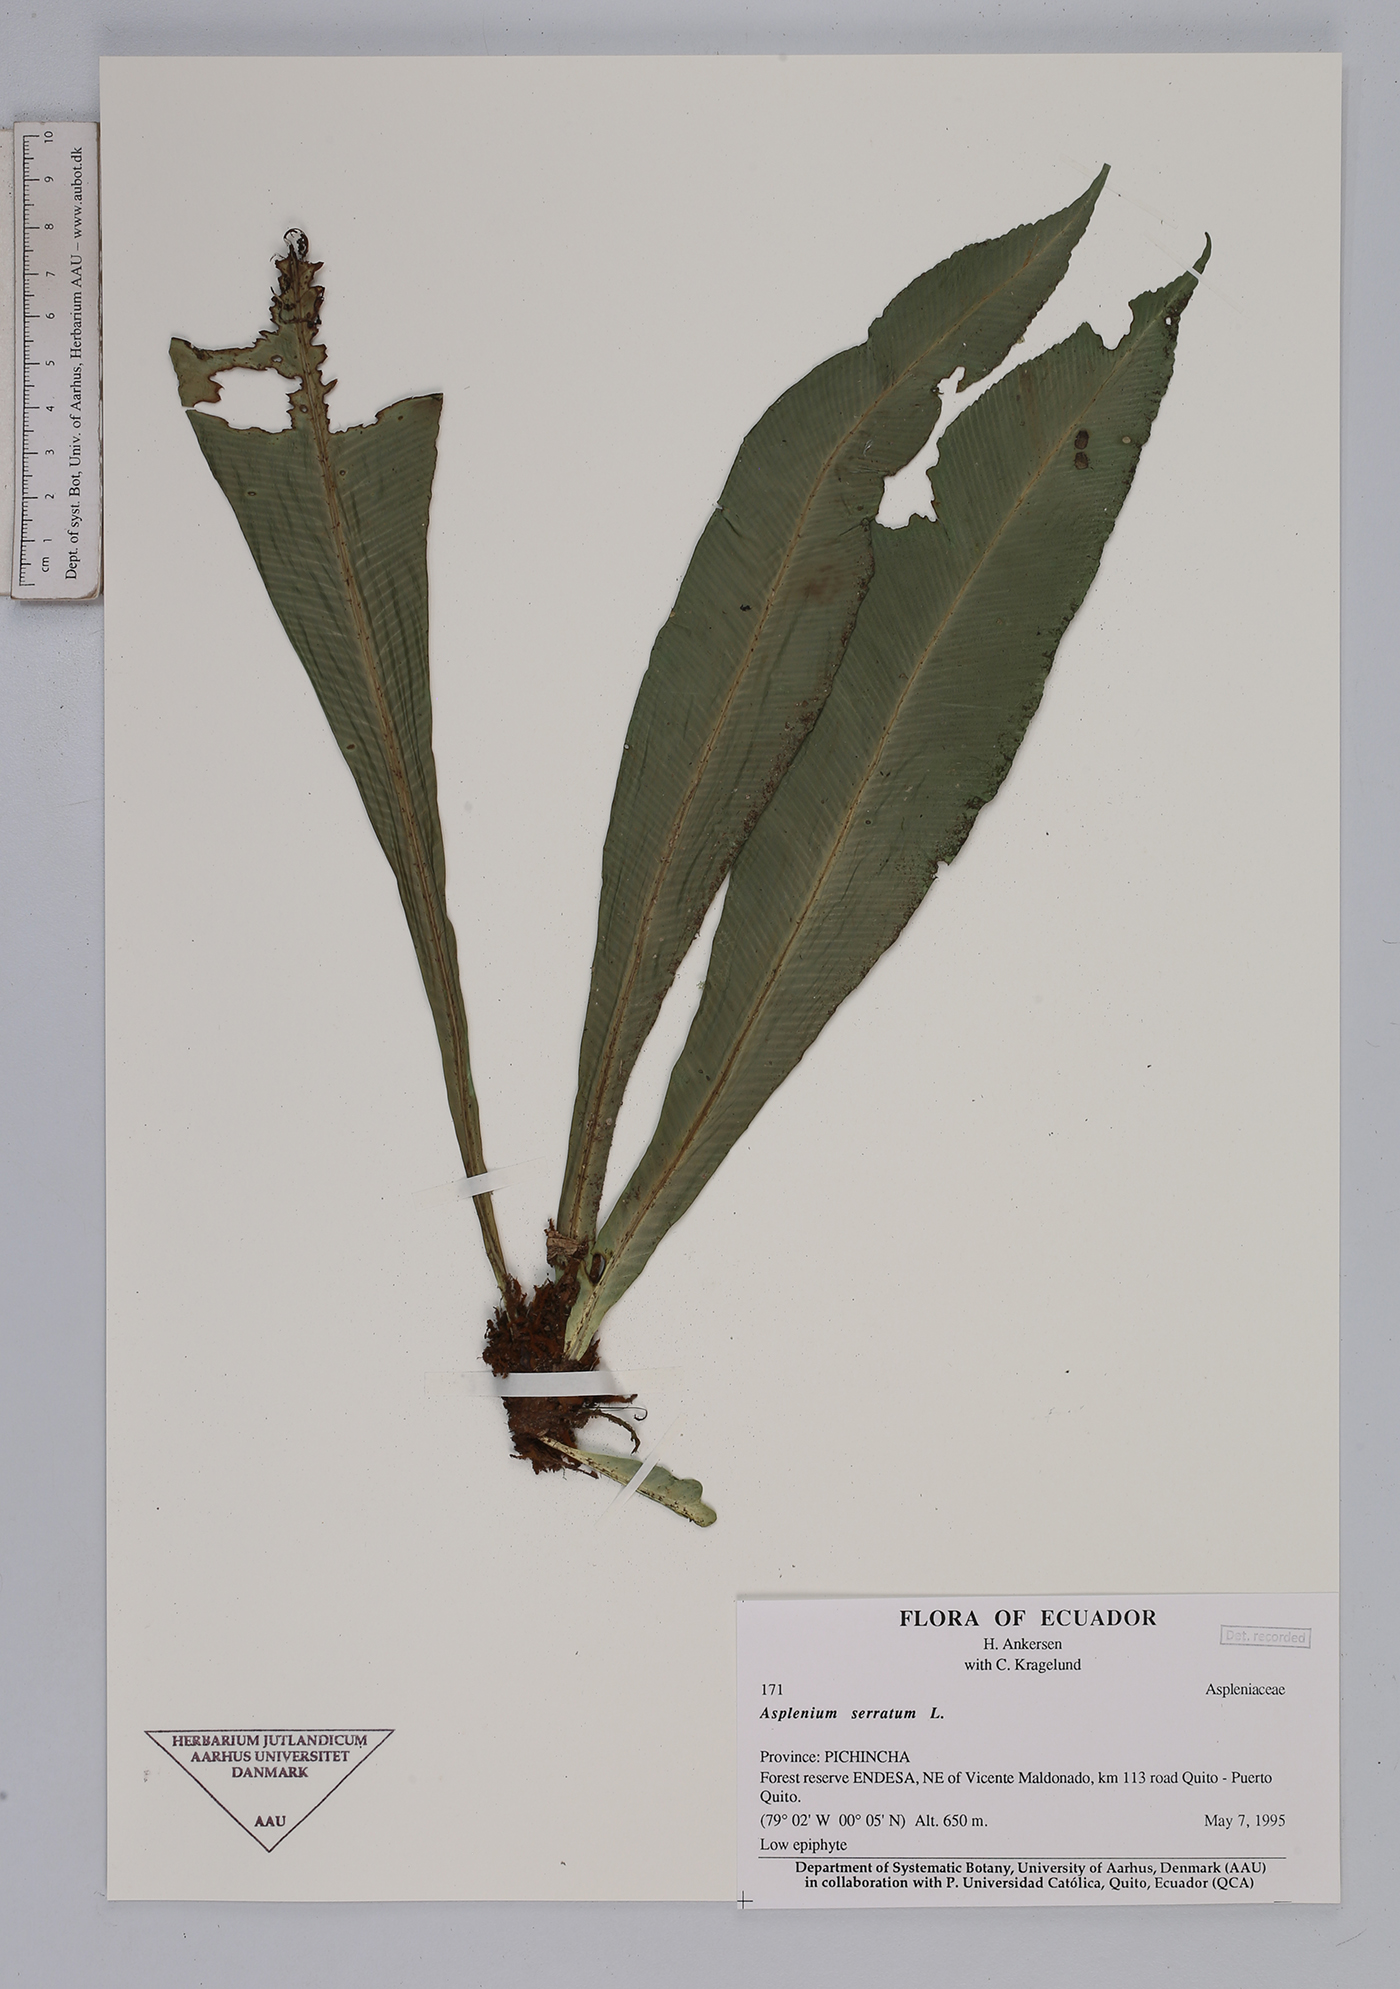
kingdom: Plantae
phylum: Tracheophyta
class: Polypodiopsida
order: Polypodiales
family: Aspleniaceae
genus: Asplenium
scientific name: Asplenium serratum
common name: Wild birdnest fern
